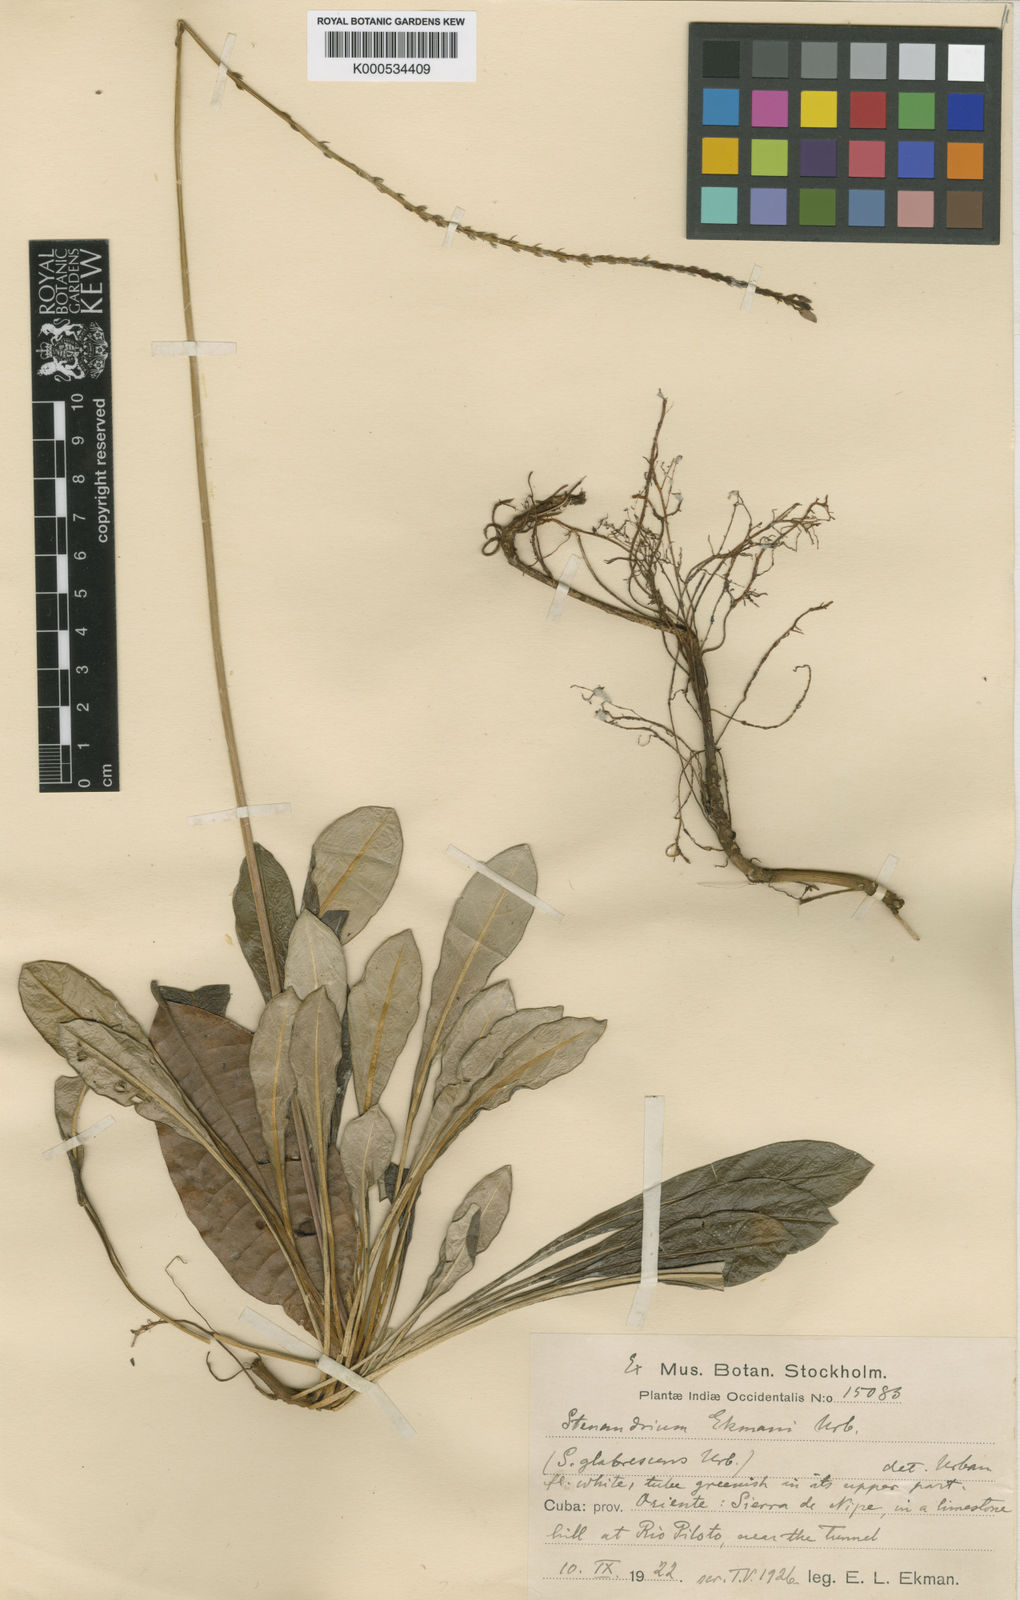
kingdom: Plantae
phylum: Tracheophyta
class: Magnoliopsida
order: Lamiales
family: Acanthaceae
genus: Stenandrium
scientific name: Stenandrium ekmanii
